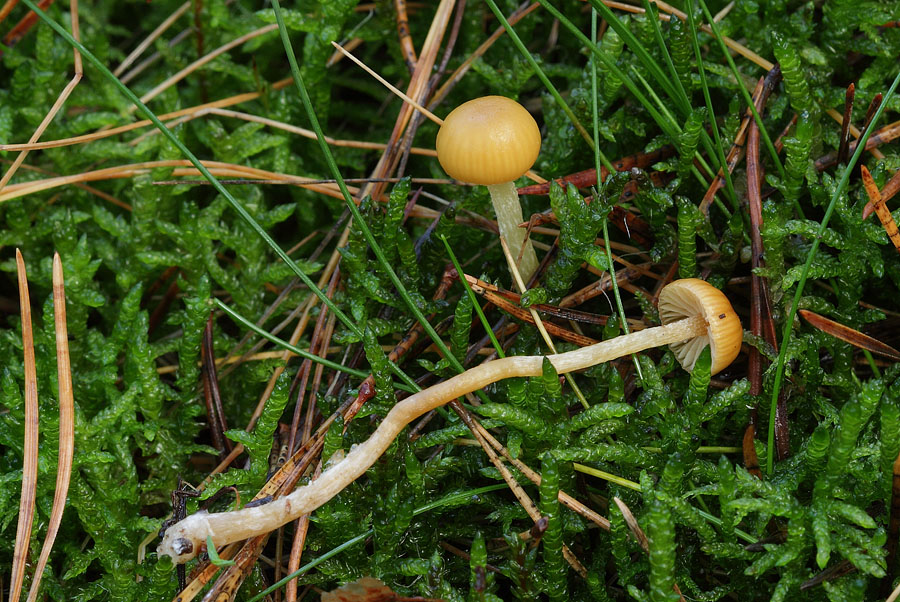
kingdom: Fungi
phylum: Basidiomycota
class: Agaricomycetes
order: Agaricales
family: Hymenogastraceae
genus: Galerina
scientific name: Galerina pumila
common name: honninggul hjelmhat
